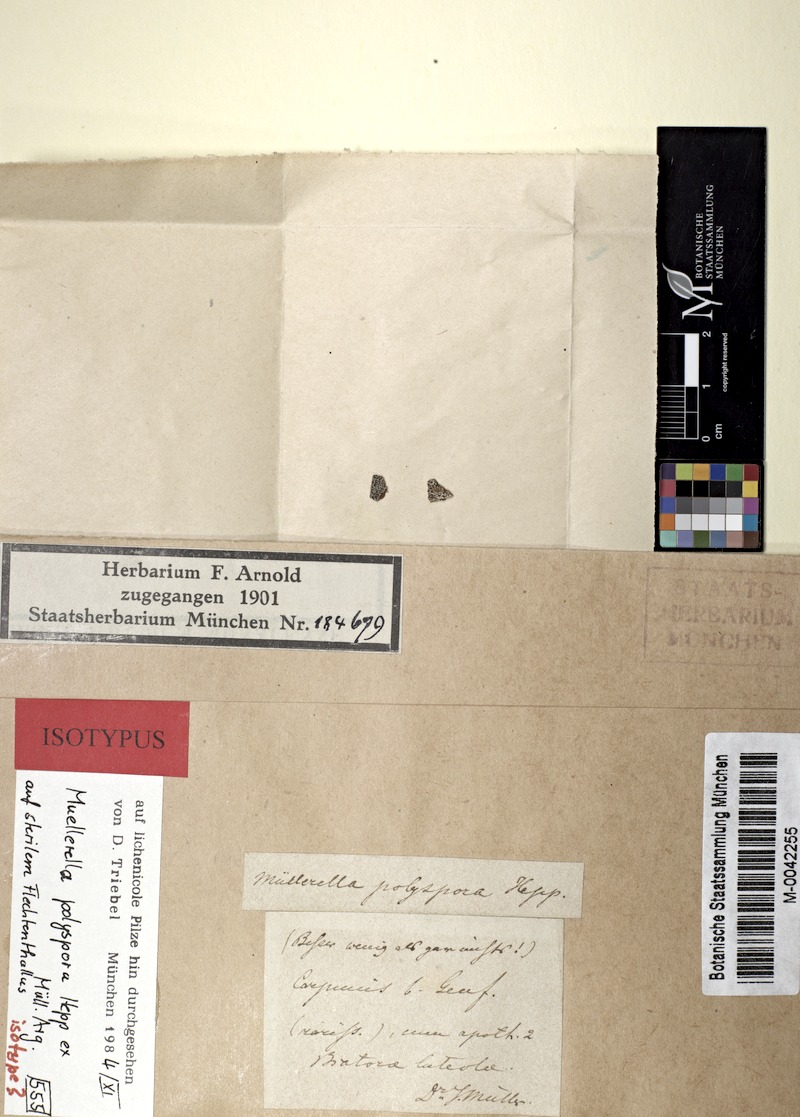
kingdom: Fungi
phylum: Ascomycota
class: Eurotiomycetes
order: Verrucariales
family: Verrucariaceae
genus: Muellerella
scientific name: Muellerella polyspora
